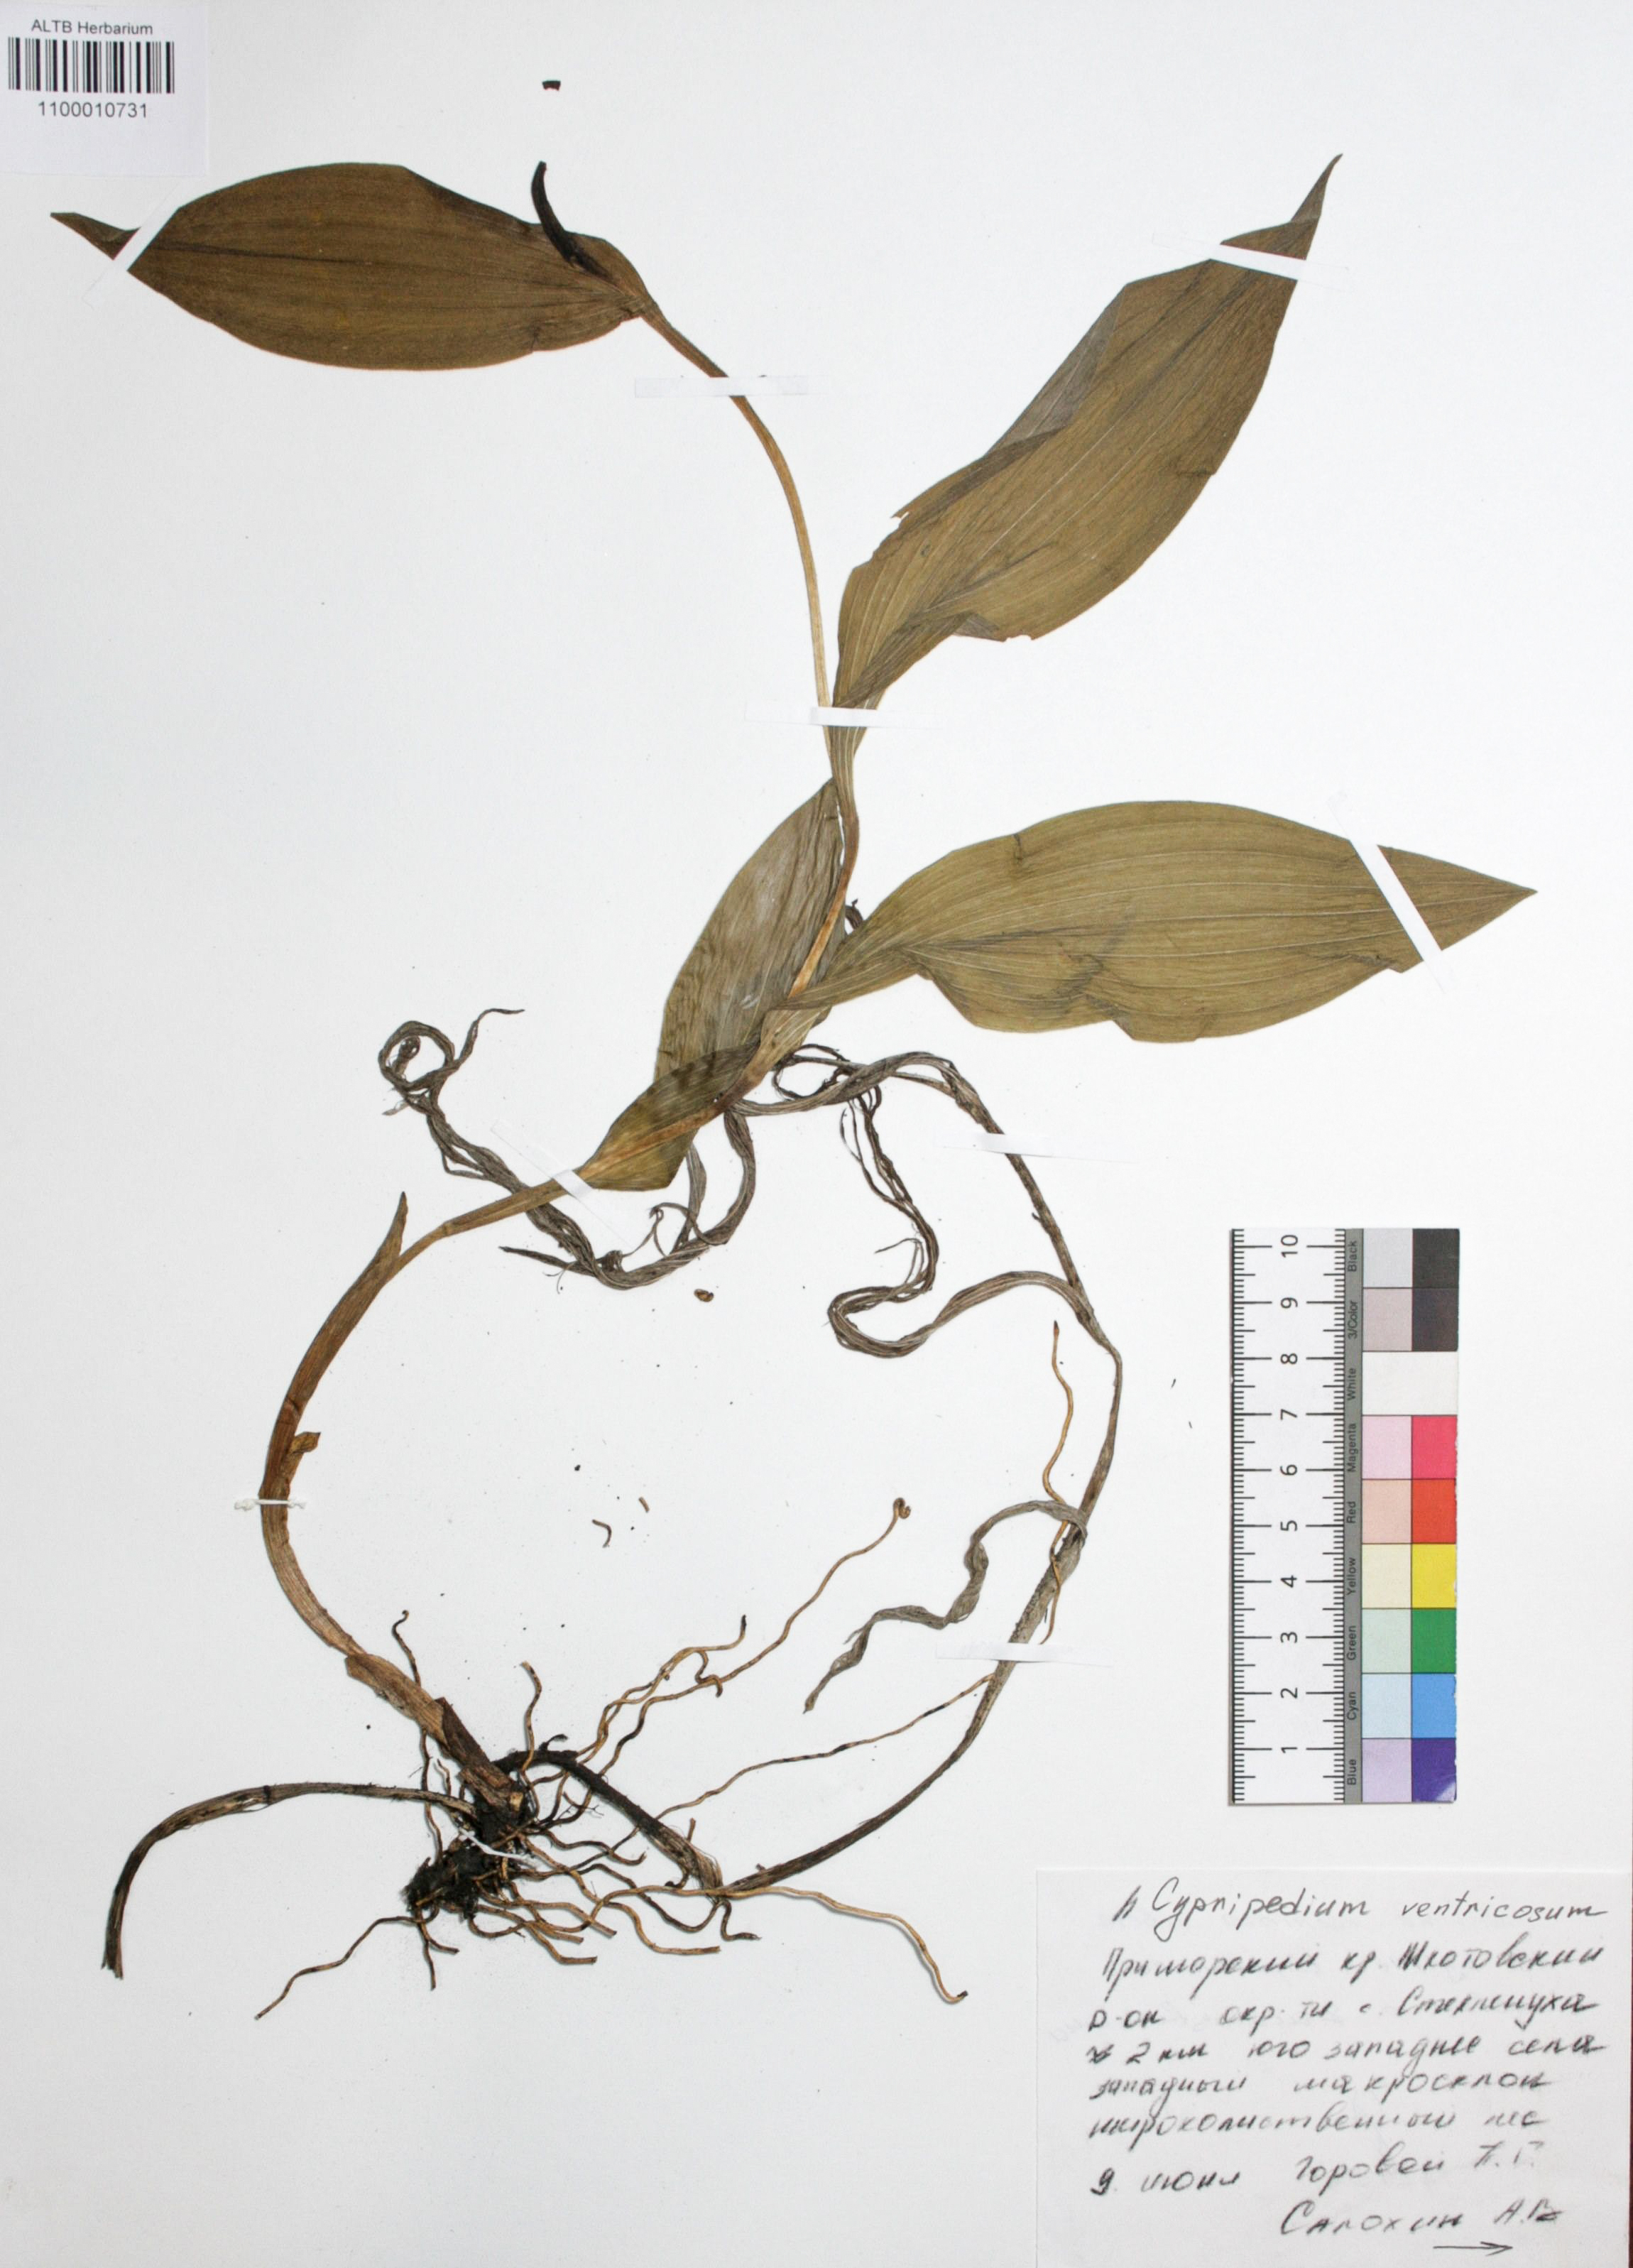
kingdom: Plantae
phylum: Tracheophyta
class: Liliopsida
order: Asparagales
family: Orchidaceae
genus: Cypripedium
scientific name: Cypripedium ventricosum
